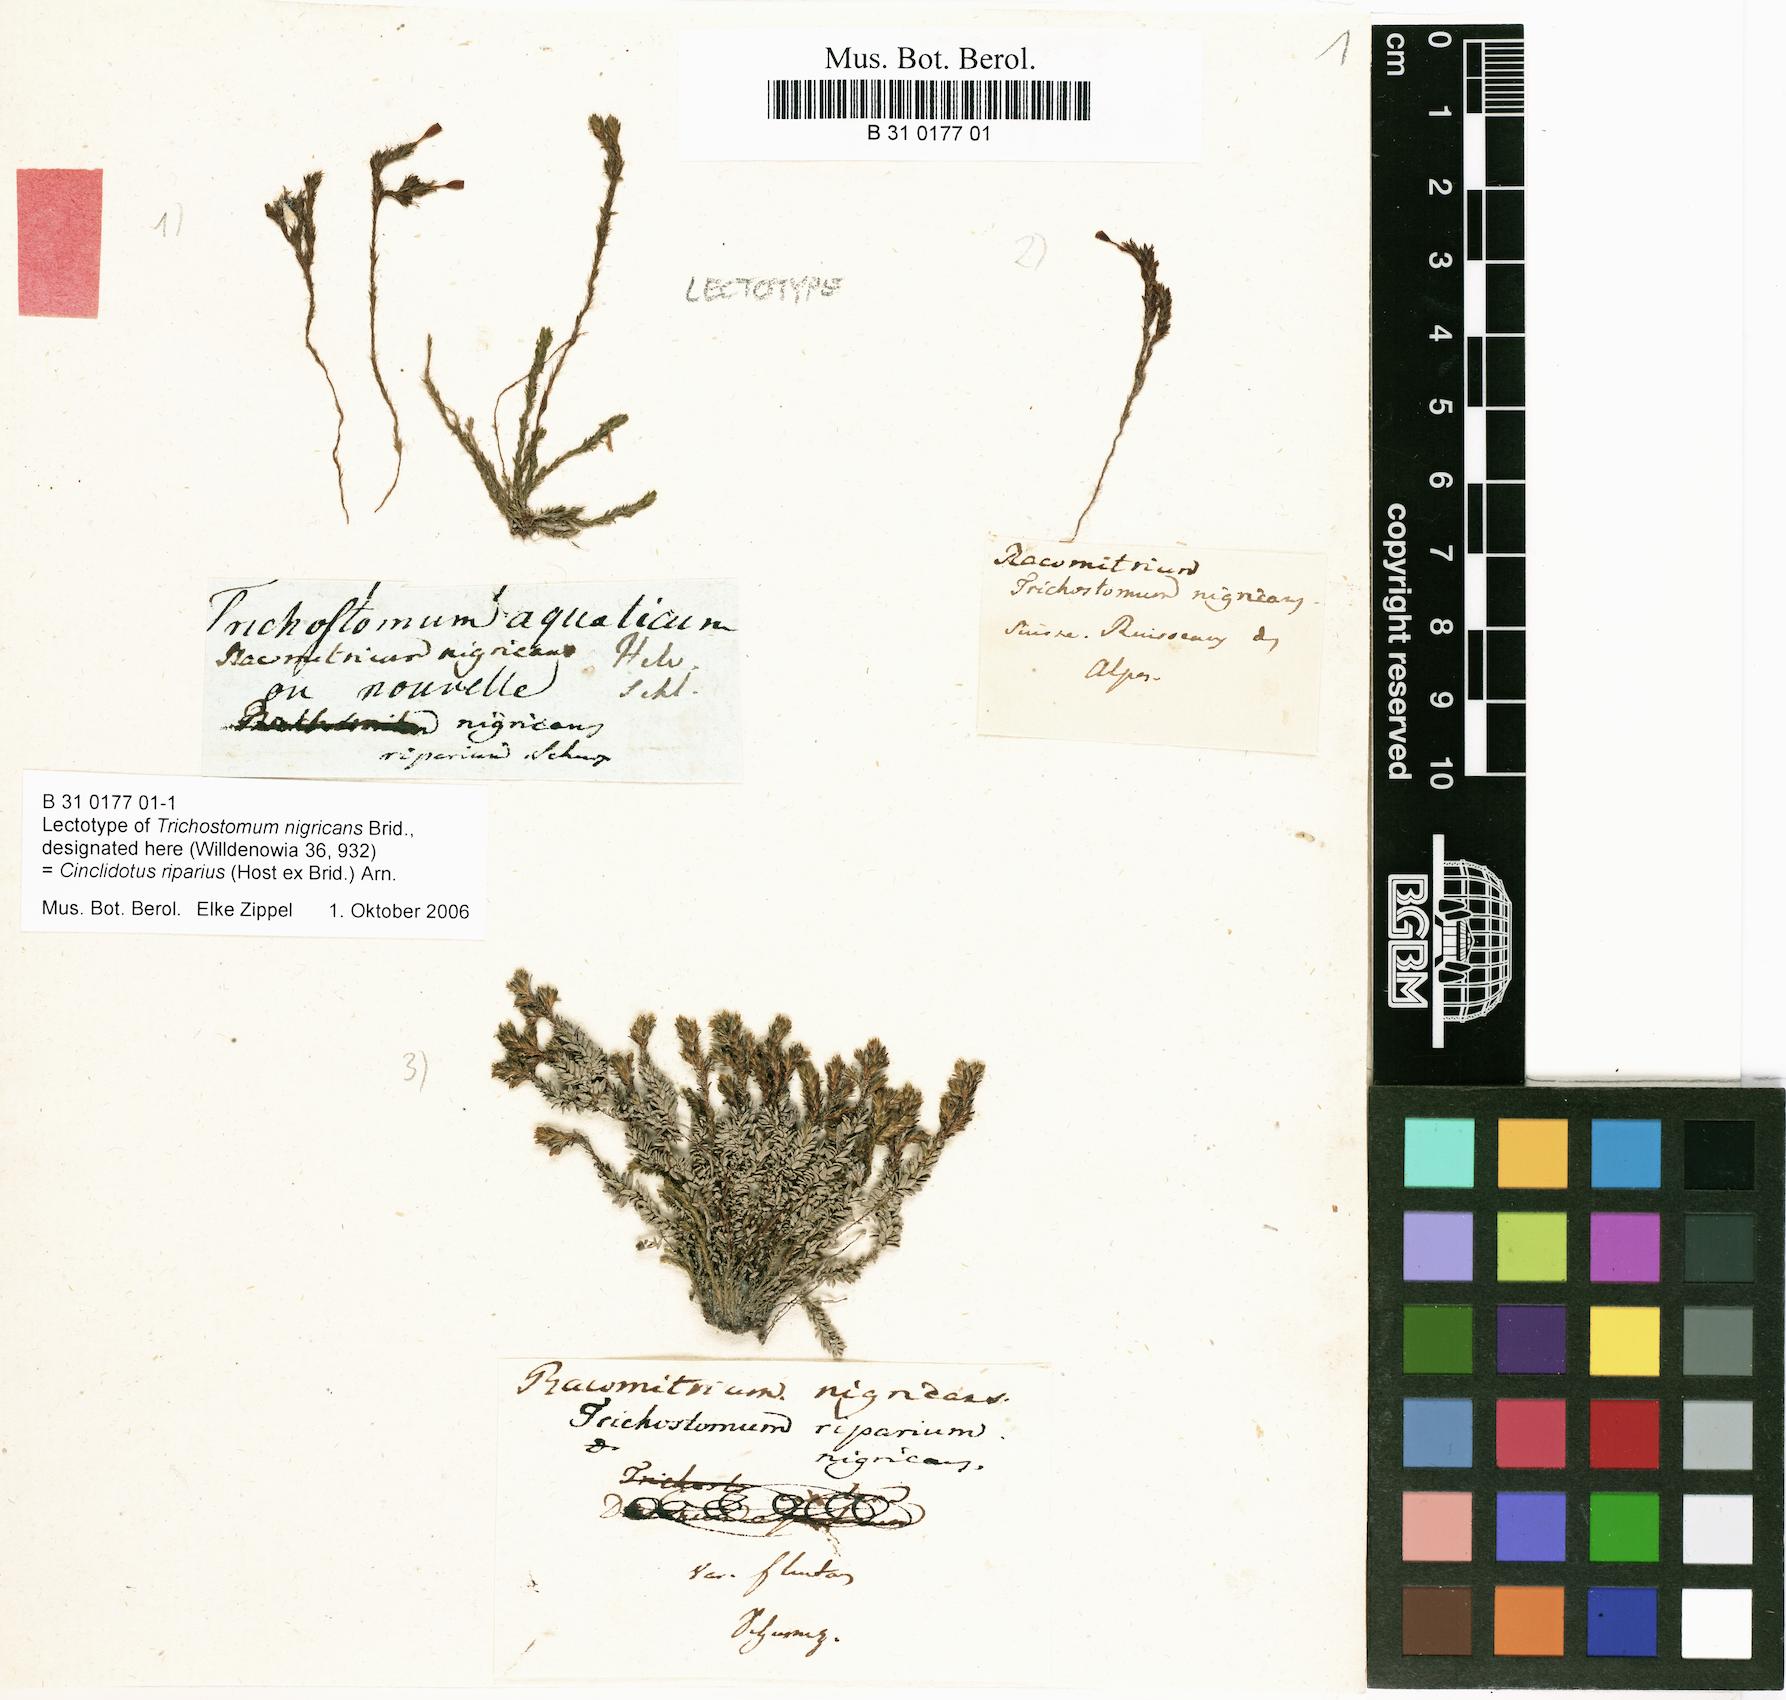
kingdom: Plantae
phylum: Bryophyta
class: Bryopsida
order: Pottiales
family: Pottiaceae
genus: Cinclidotus
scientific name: Cinclidotus riparius
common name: Fountain lattice-moss
